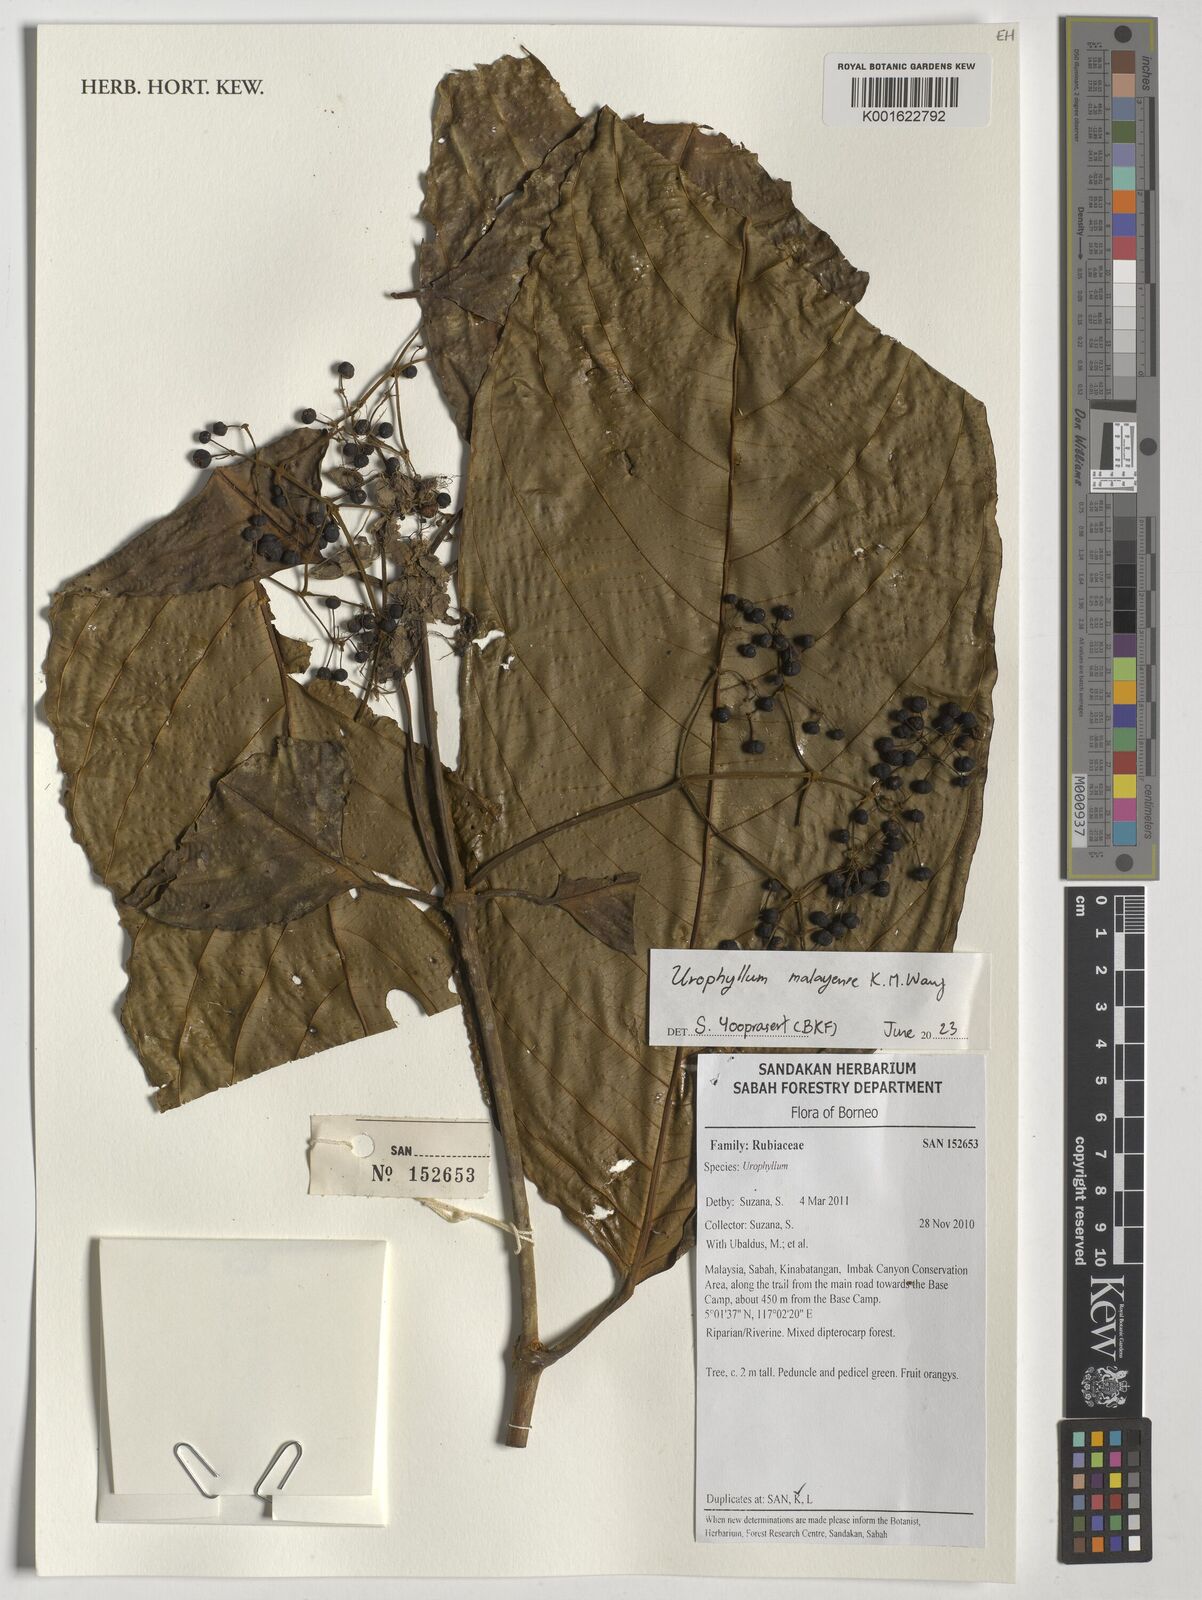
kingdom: Plantae
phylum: Tracheophyta
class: Magnoliopsida
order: Gentianales
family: Rubiaceae
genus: Urophyllum
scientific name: Urophyllum malayense
